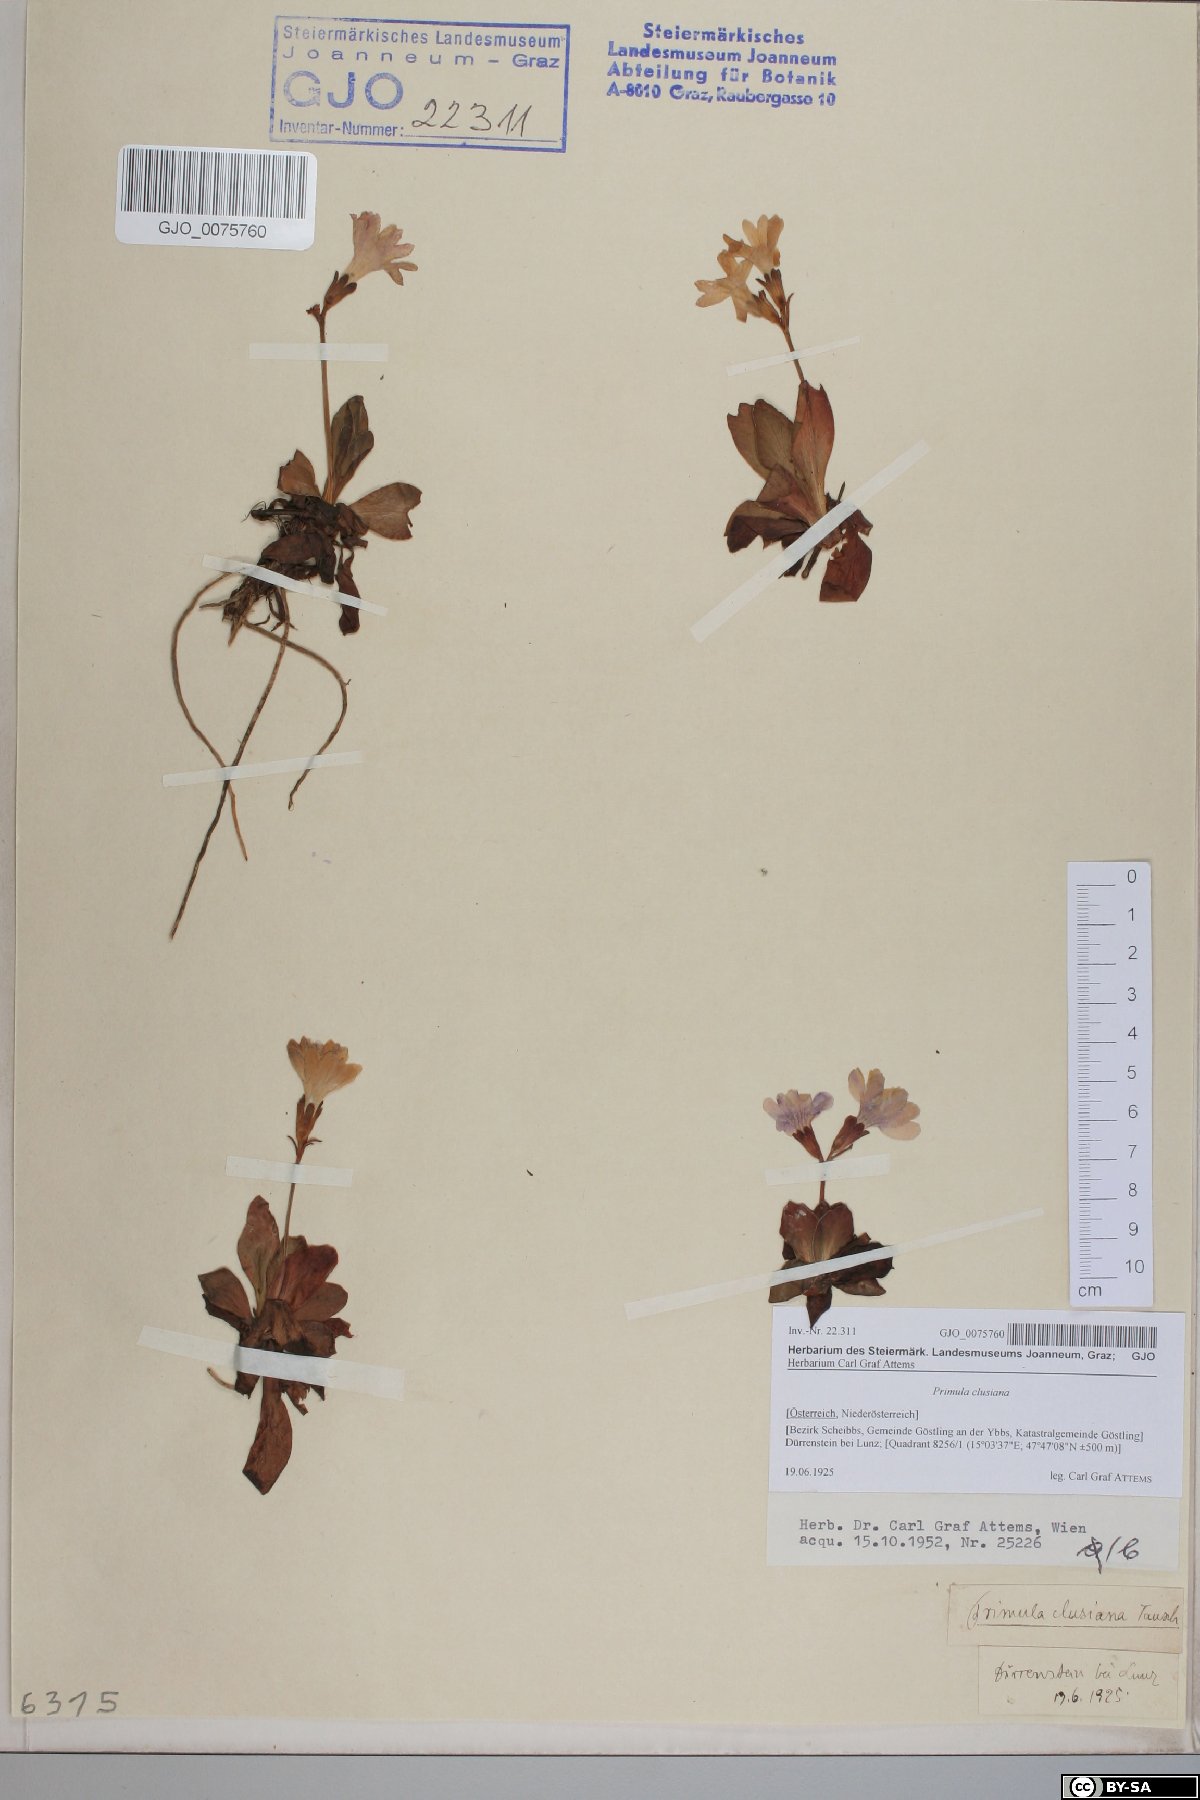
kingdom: Plantae
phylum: Tracheophyta
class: Magnoliopsida
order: Ericales
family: Primulaceae
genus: Primula
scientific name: Primula clusiana
